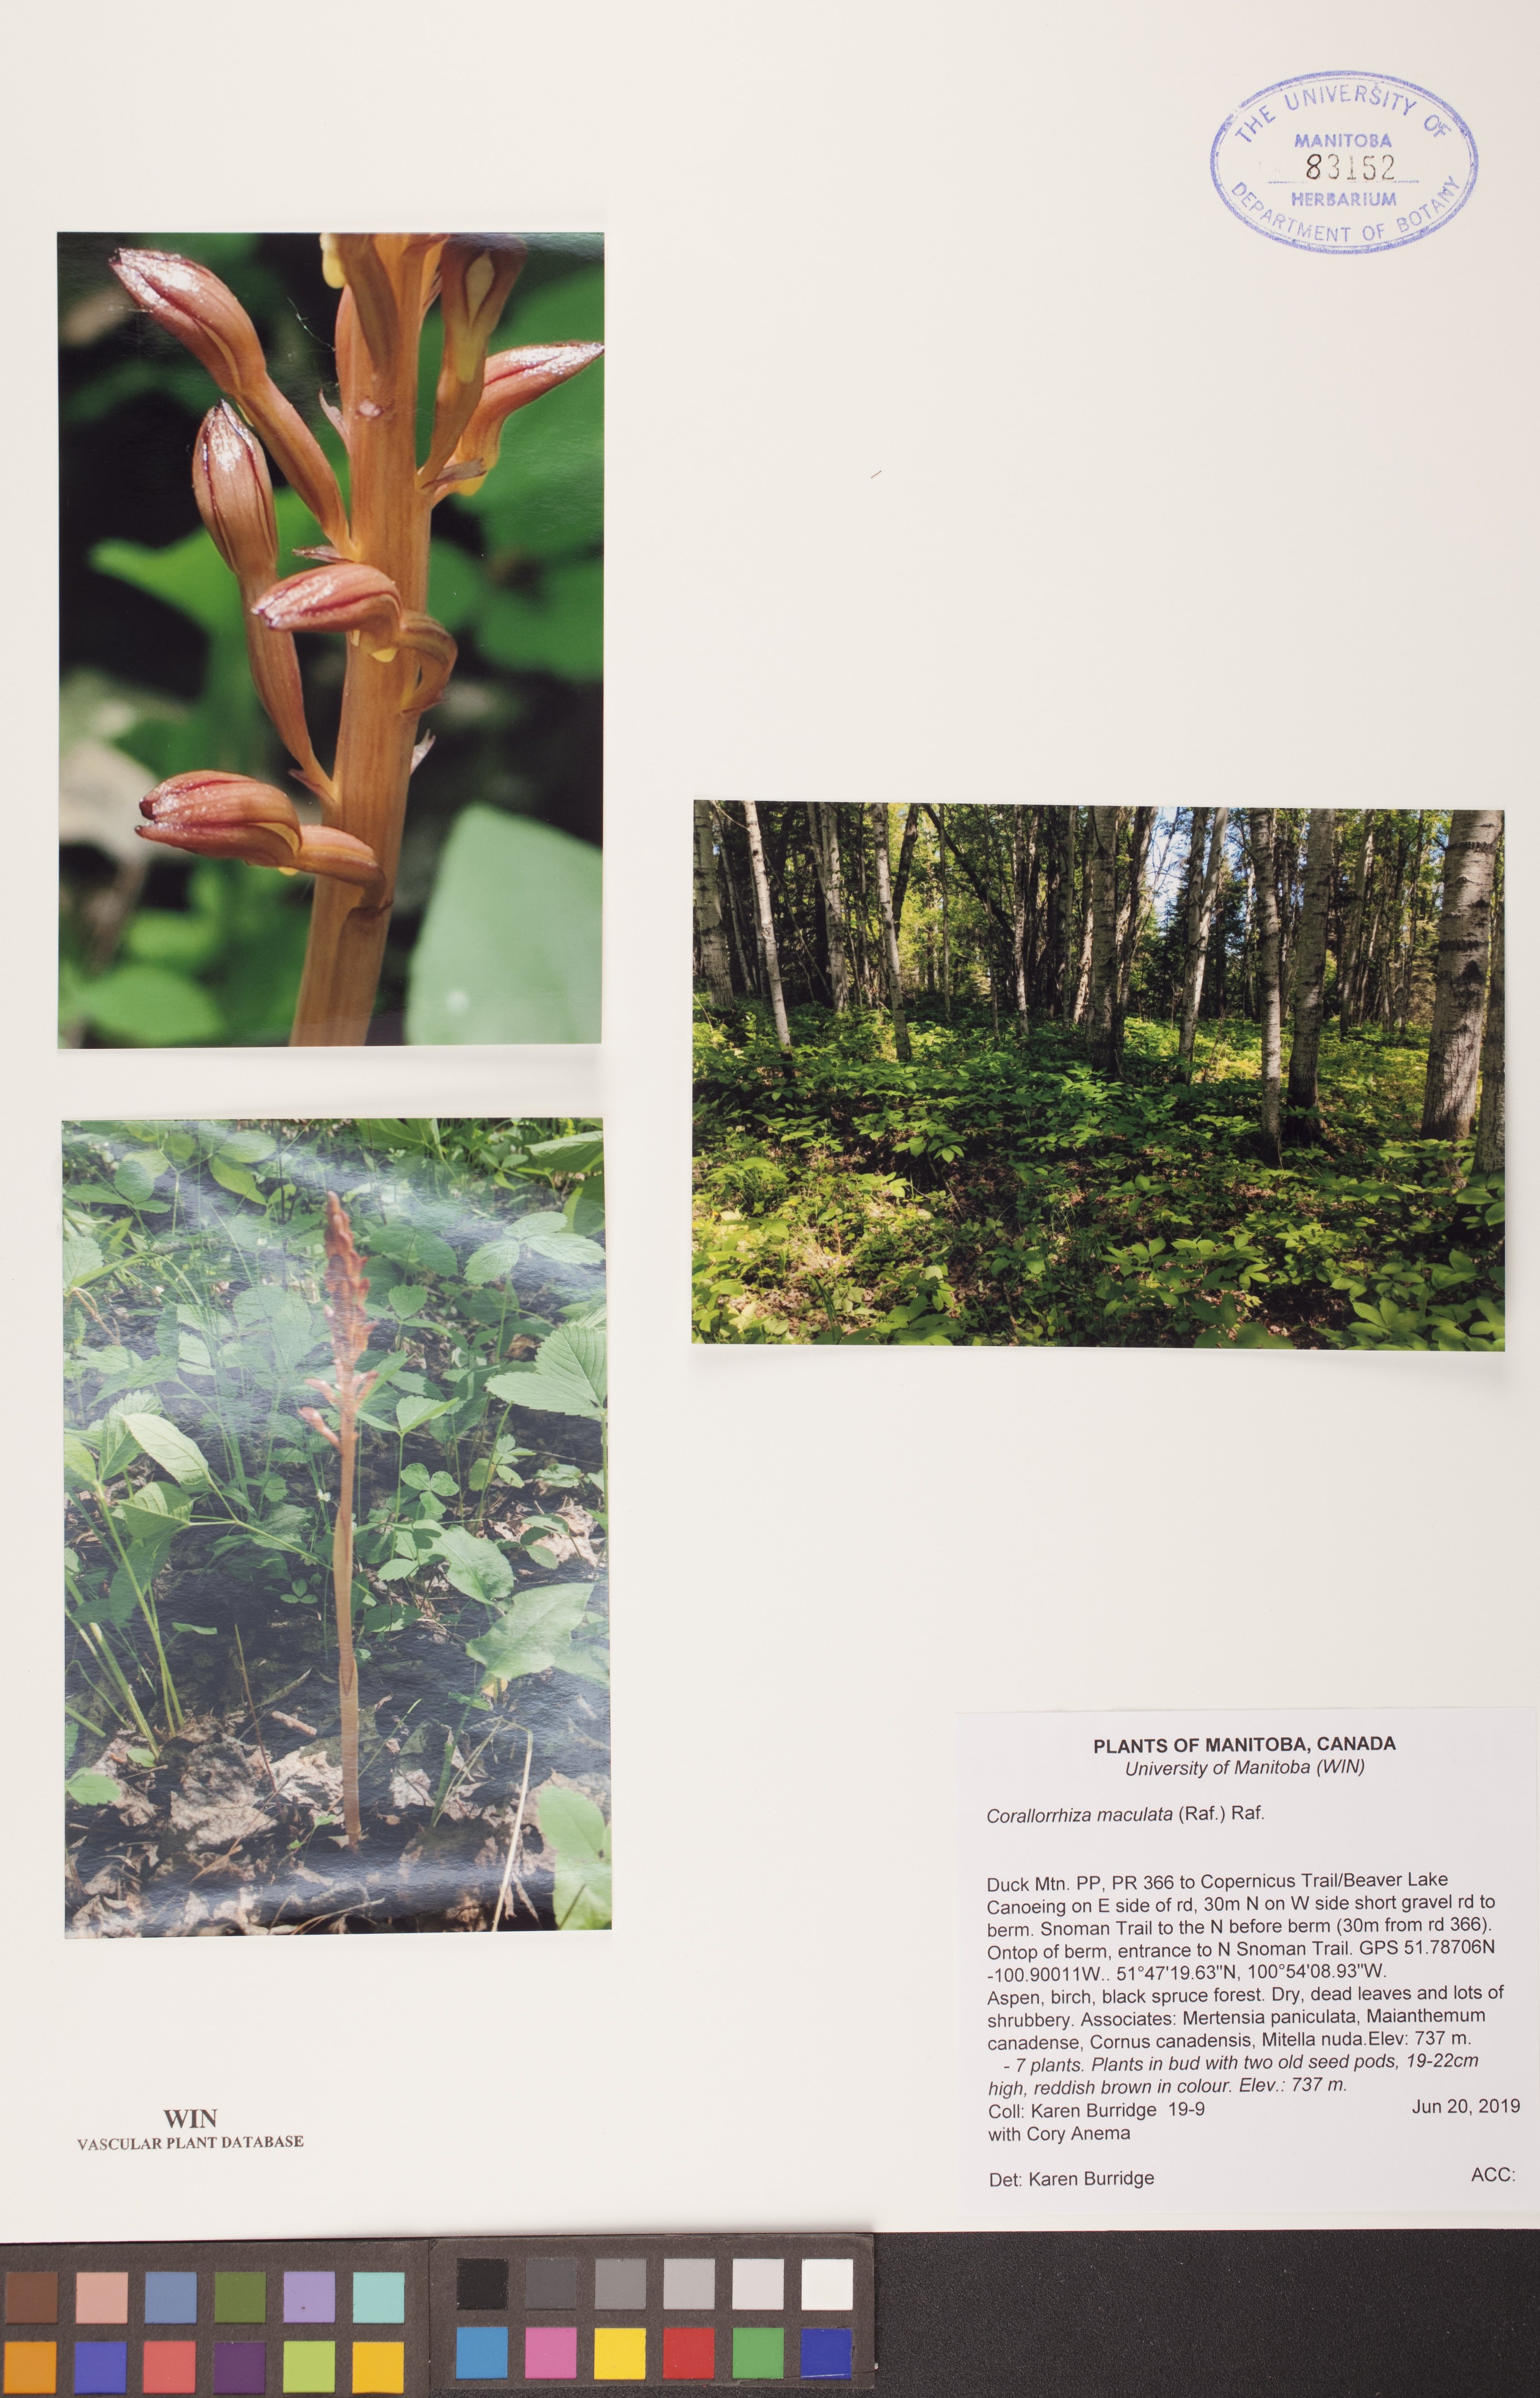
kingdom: Plantae
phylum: Tracheophyta
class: Liliopsida
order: Asparagales
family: Orchidaceae
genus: Corallorhiza
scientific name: Corallorhiza maculata
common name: Spotted coralroot
